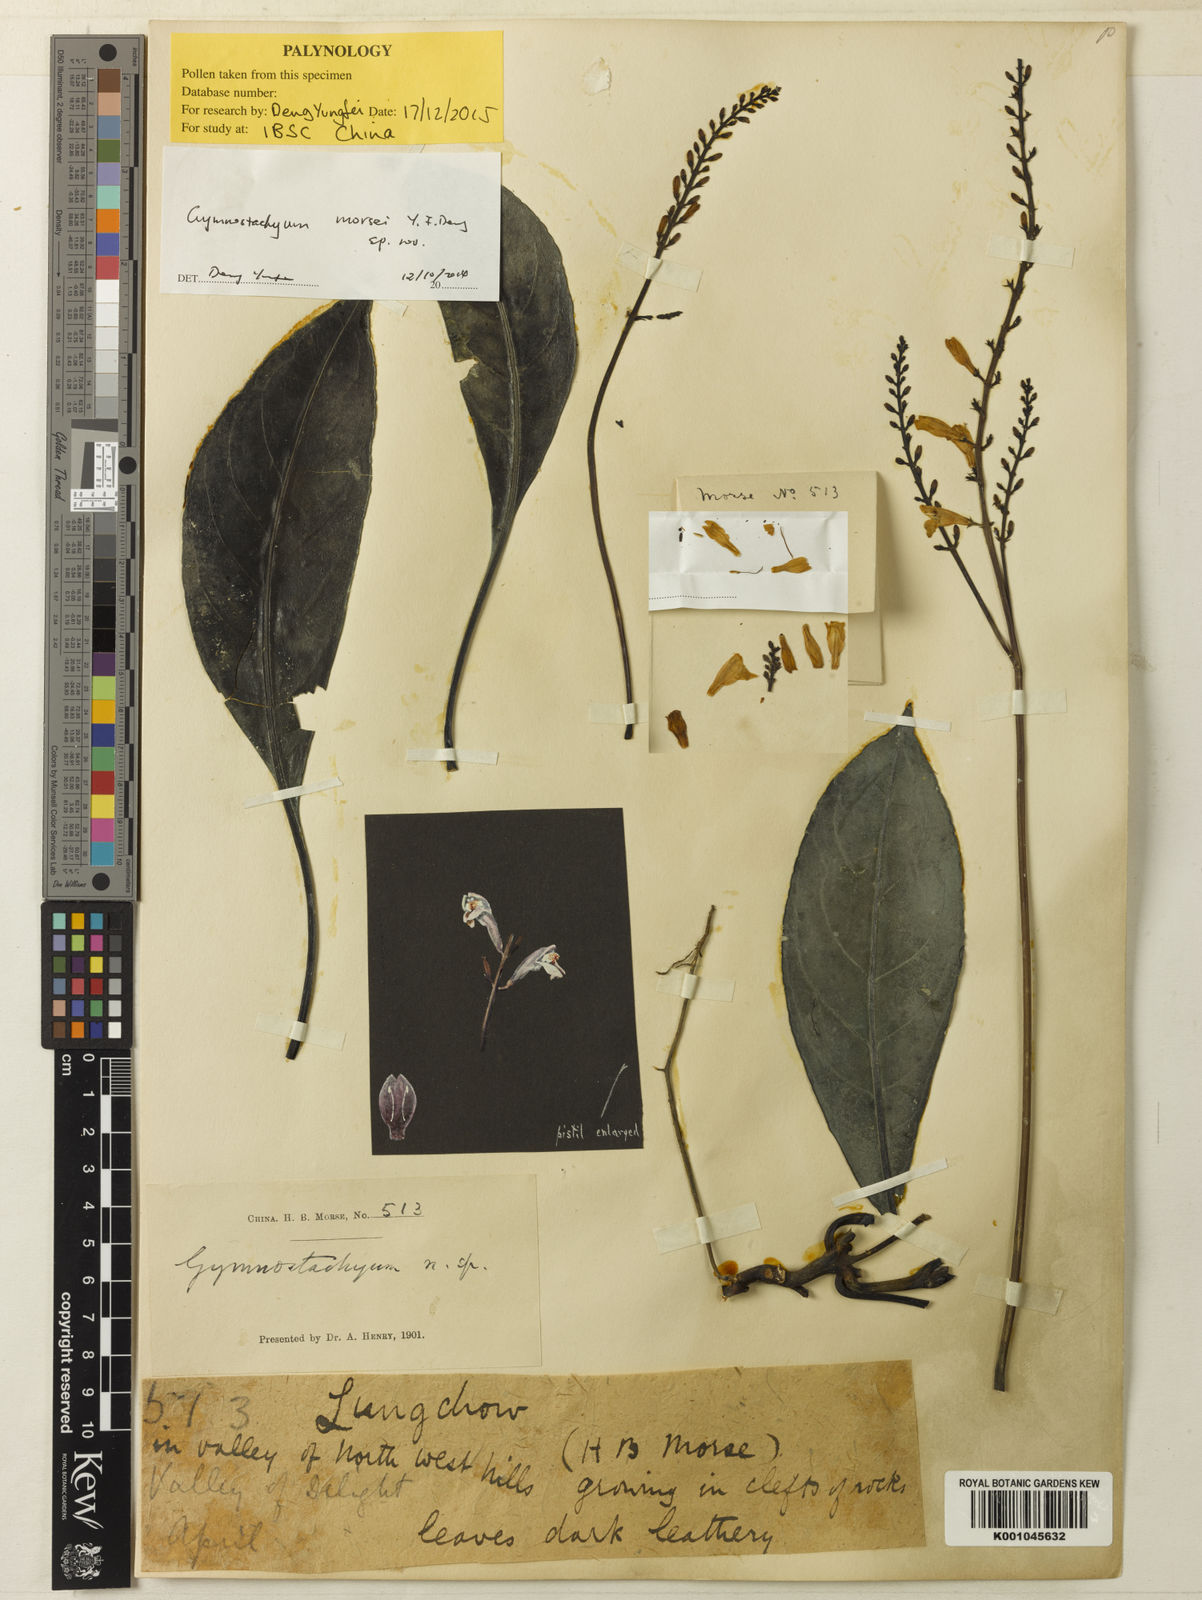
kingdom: Plantae
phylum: Tracheophyta
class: Magnoliopsida
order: Lamiales
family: Acanthaceae
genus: Gymnostachyum
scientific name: Gymnostachyum
